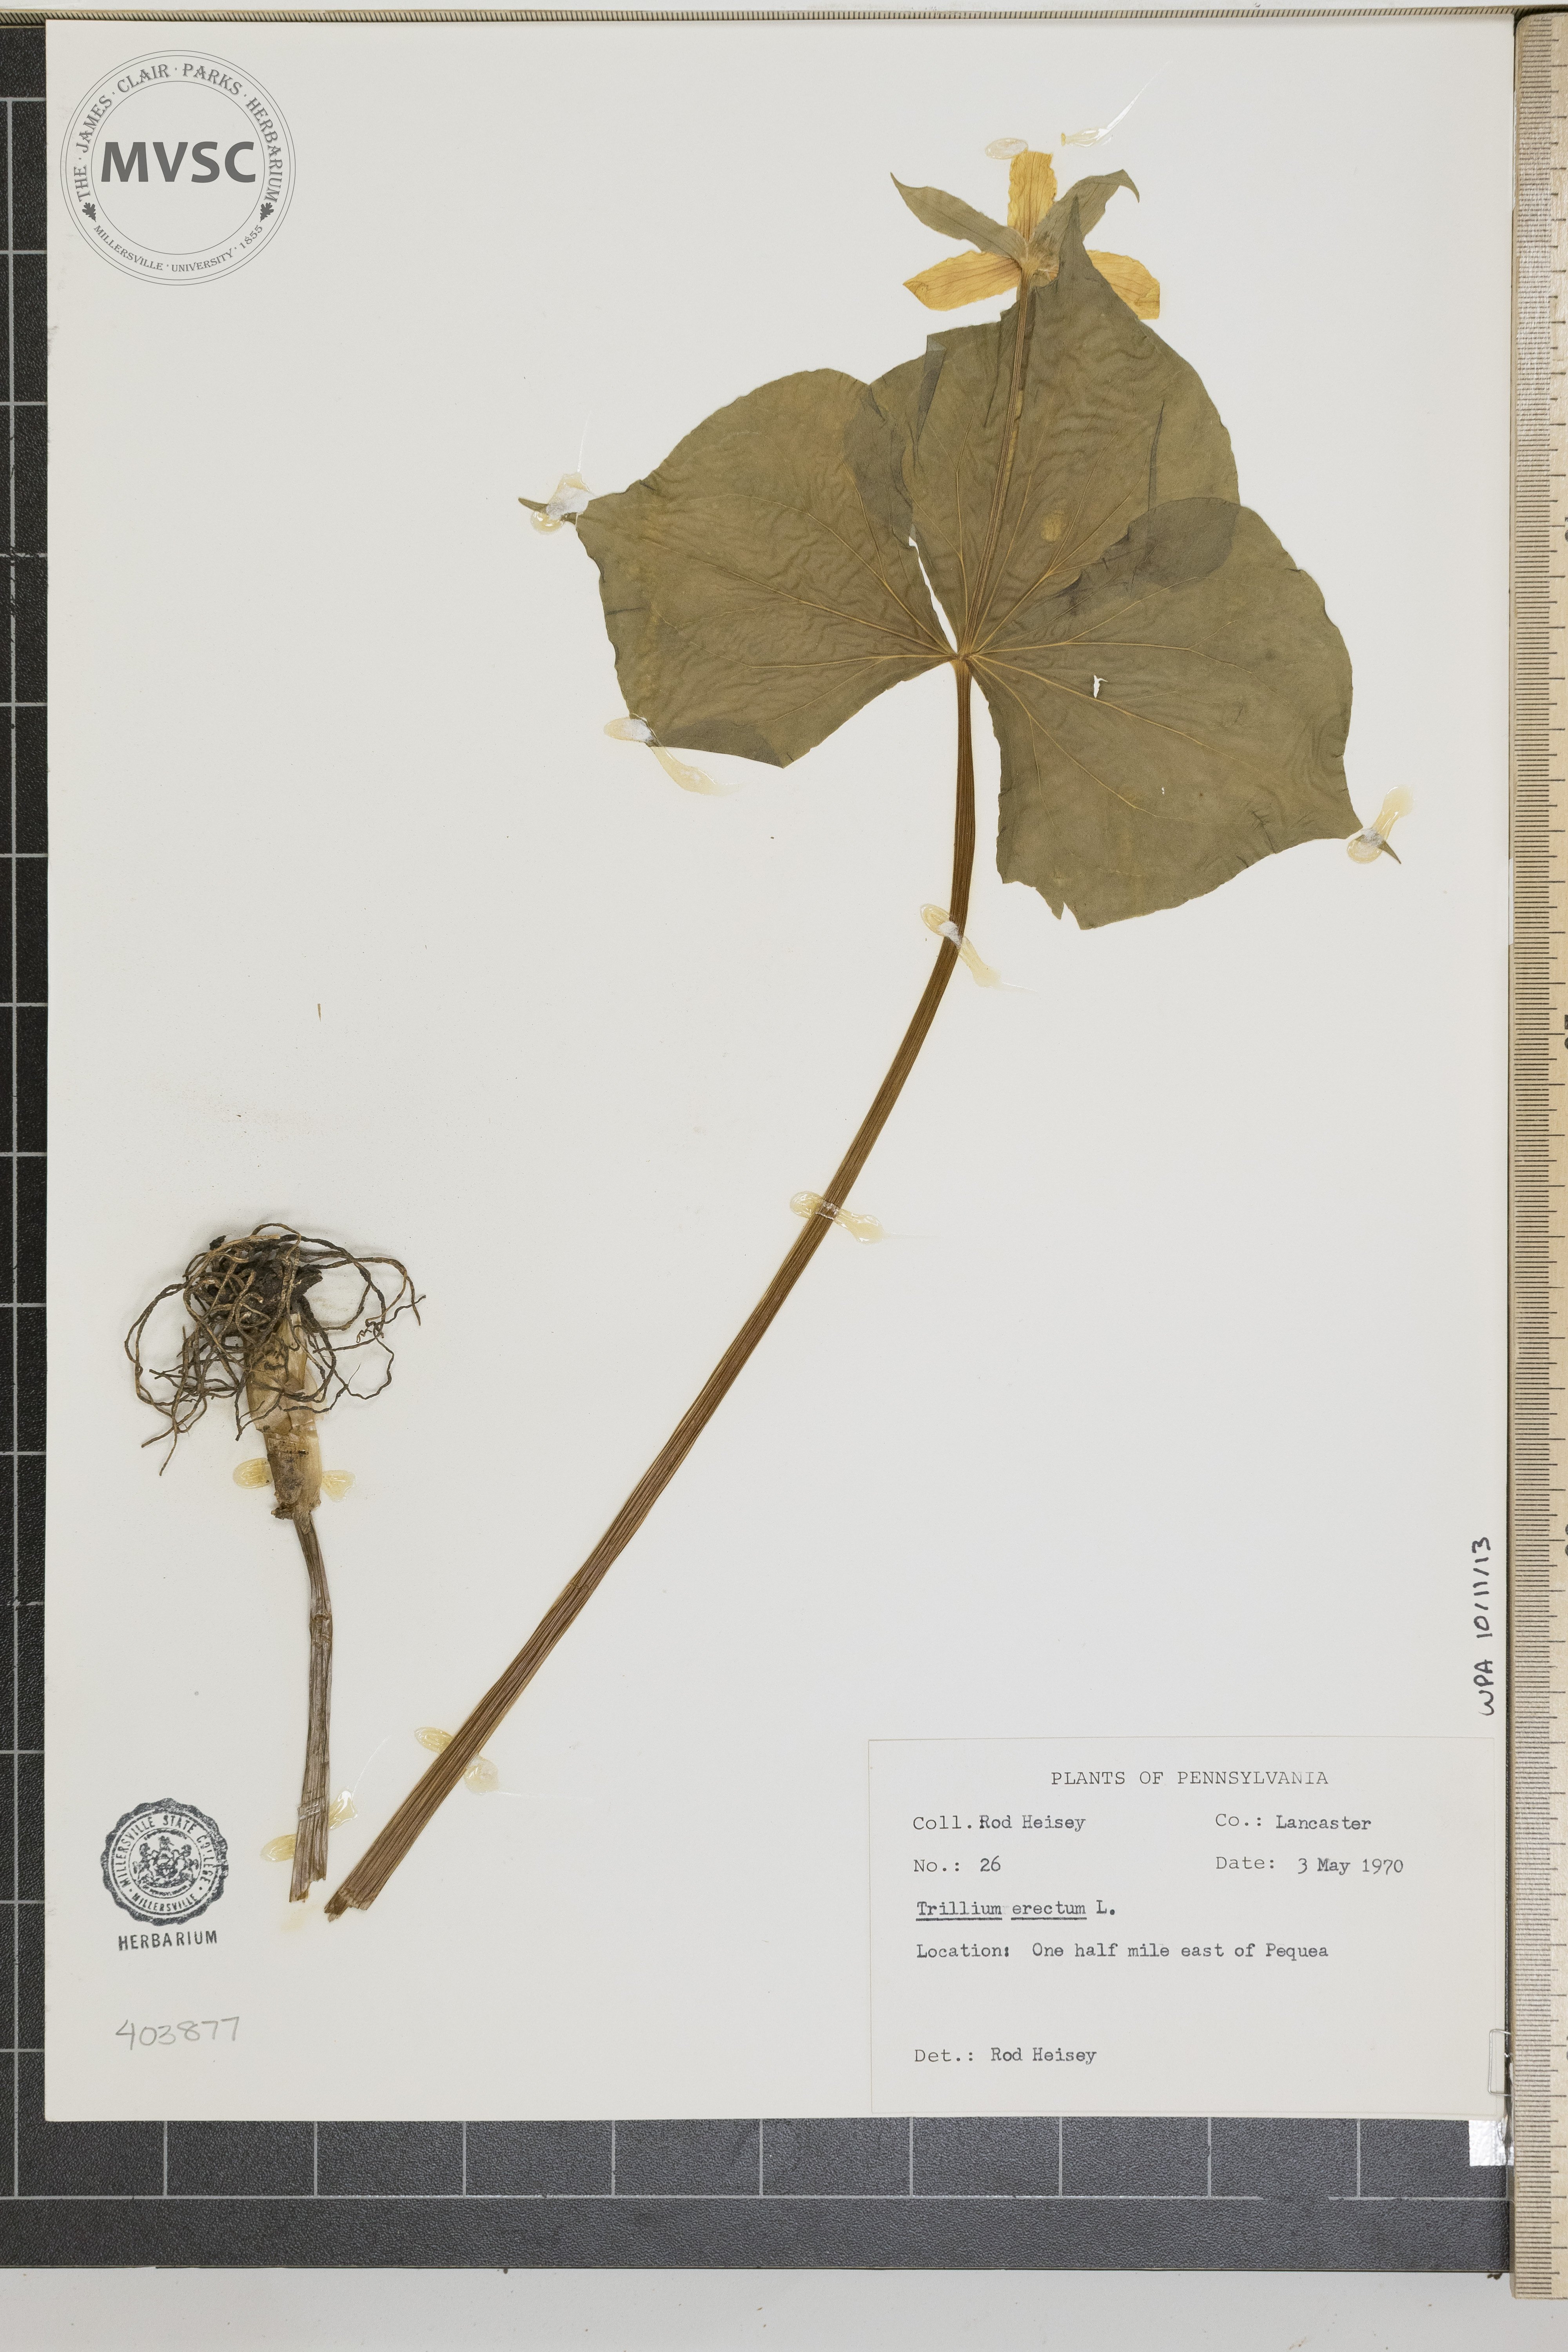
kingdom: Plantae
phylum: Tracheophyta
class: Liliopsida
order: Liliales
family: Melanthiaceae
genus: Trillium
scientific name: Trillium erectum
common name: Purple trillium
